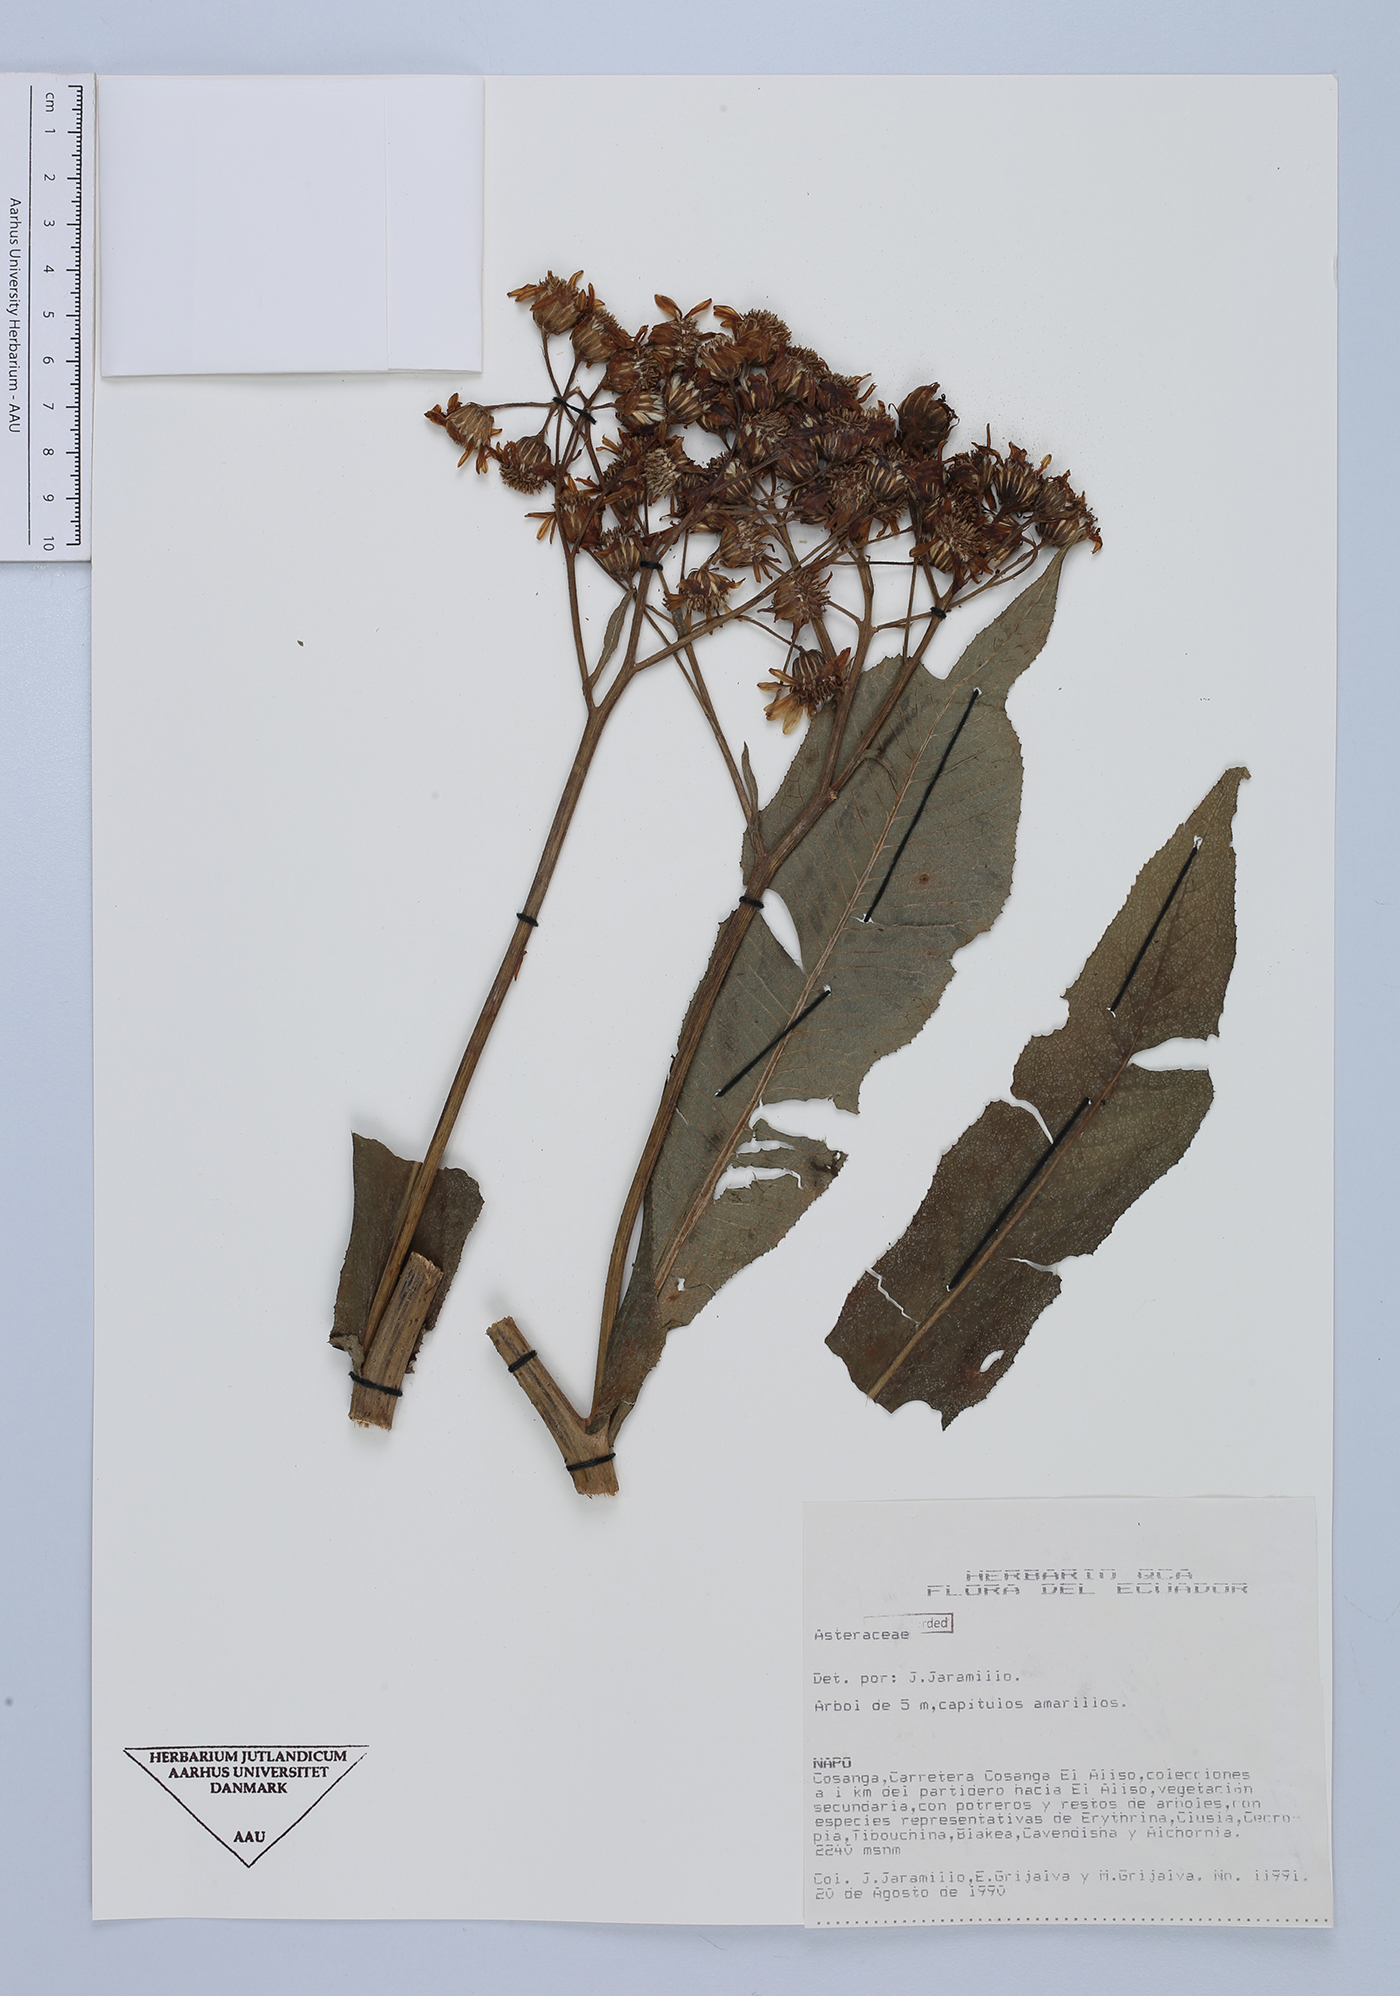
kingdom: Plantae
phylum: Tracheophyta
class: Magnoliopsida
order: Asterales
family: Asteraceae
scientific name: Asteraceae
